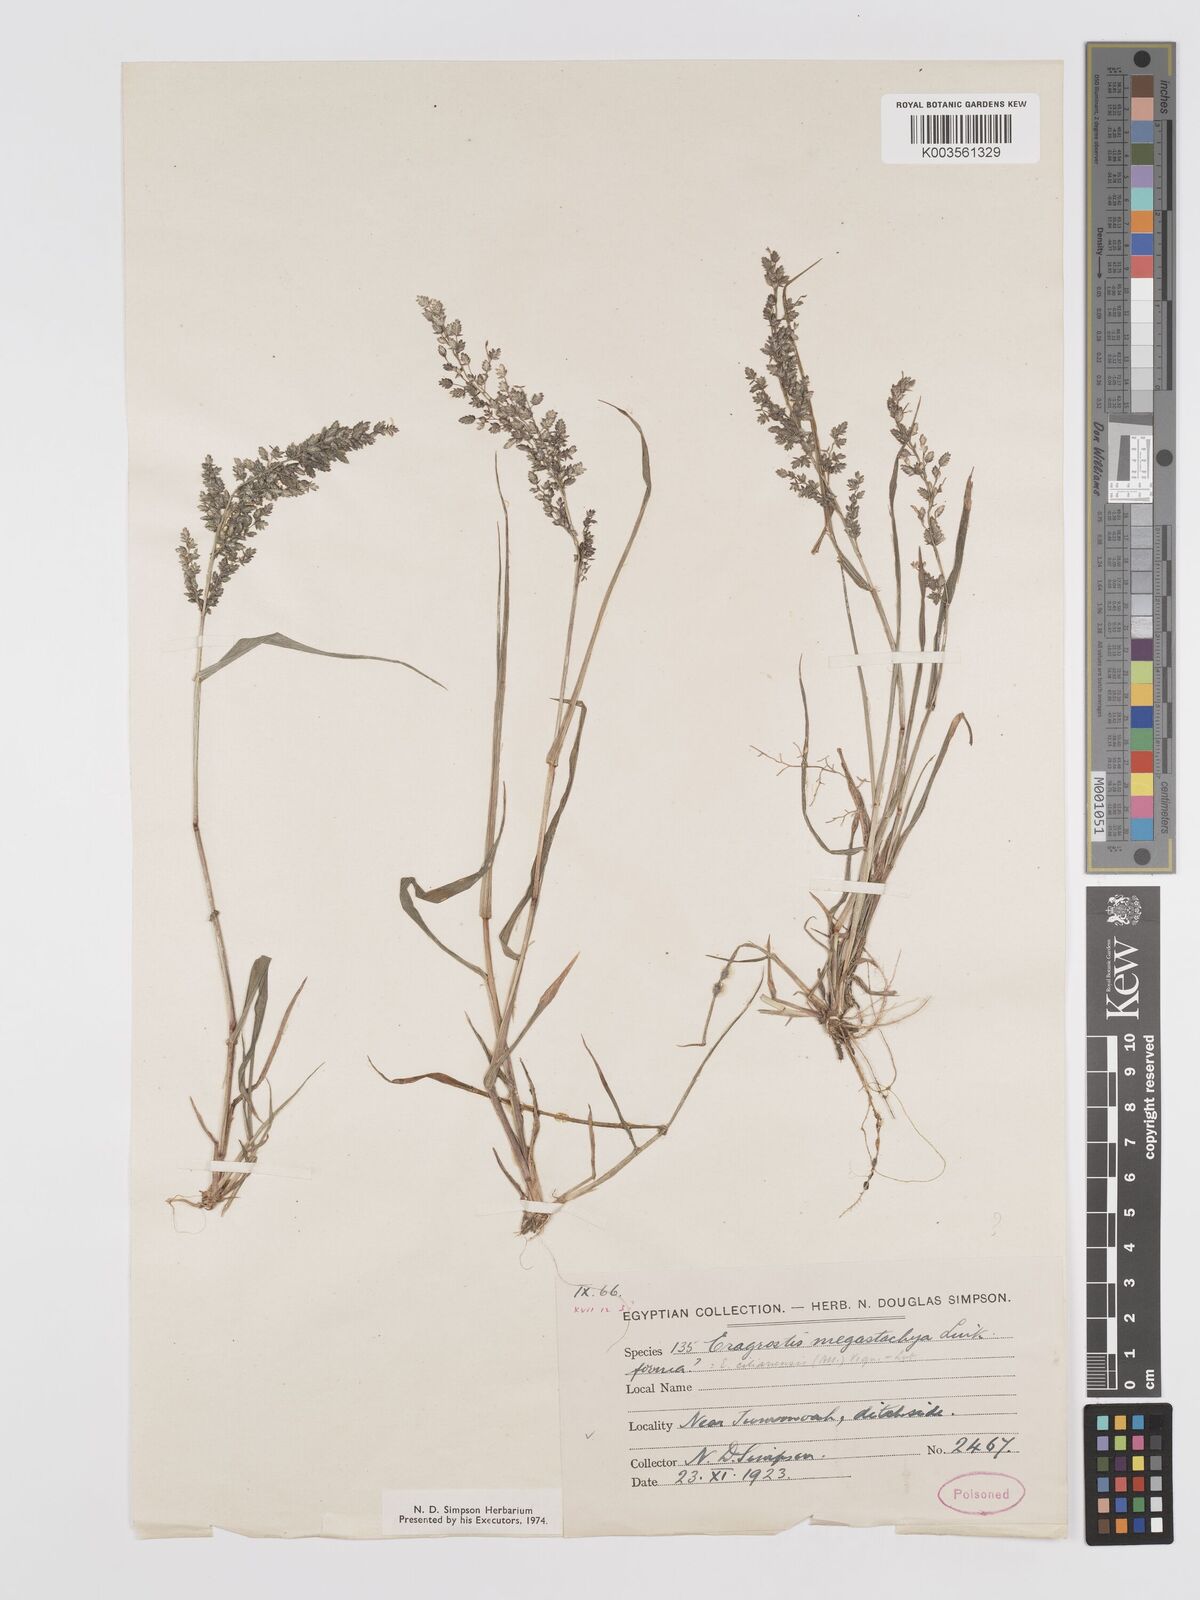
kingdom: Plantae
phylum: Tracheophyta
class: Liliopsida
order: Poales
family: Poaceae
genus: Eragrostis
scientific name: Eragrostis cilianensis
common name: Stinkgrass
